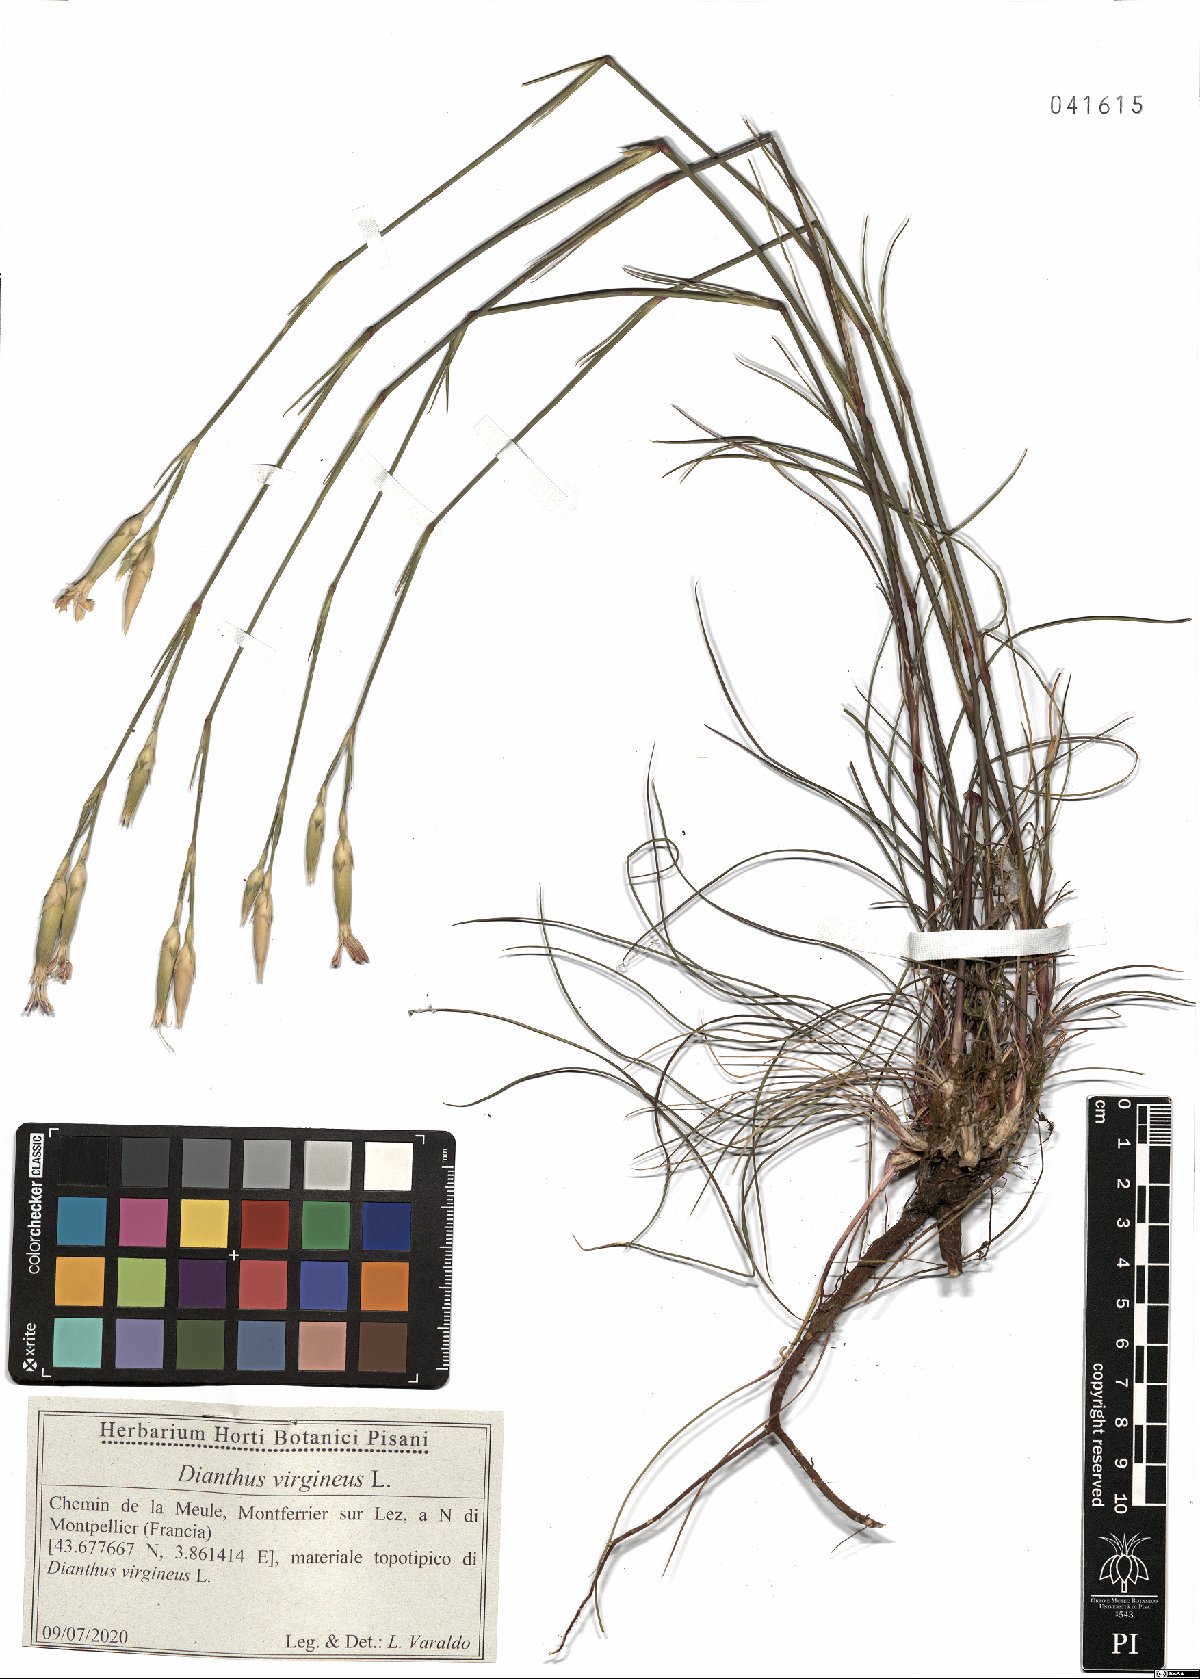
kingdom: Plantae
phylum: Tracheophyta
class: Magnoliopsida
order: Caryophyllales
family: Caryophyllaceae
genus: Dianthus
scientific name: Dianthus virgineus
